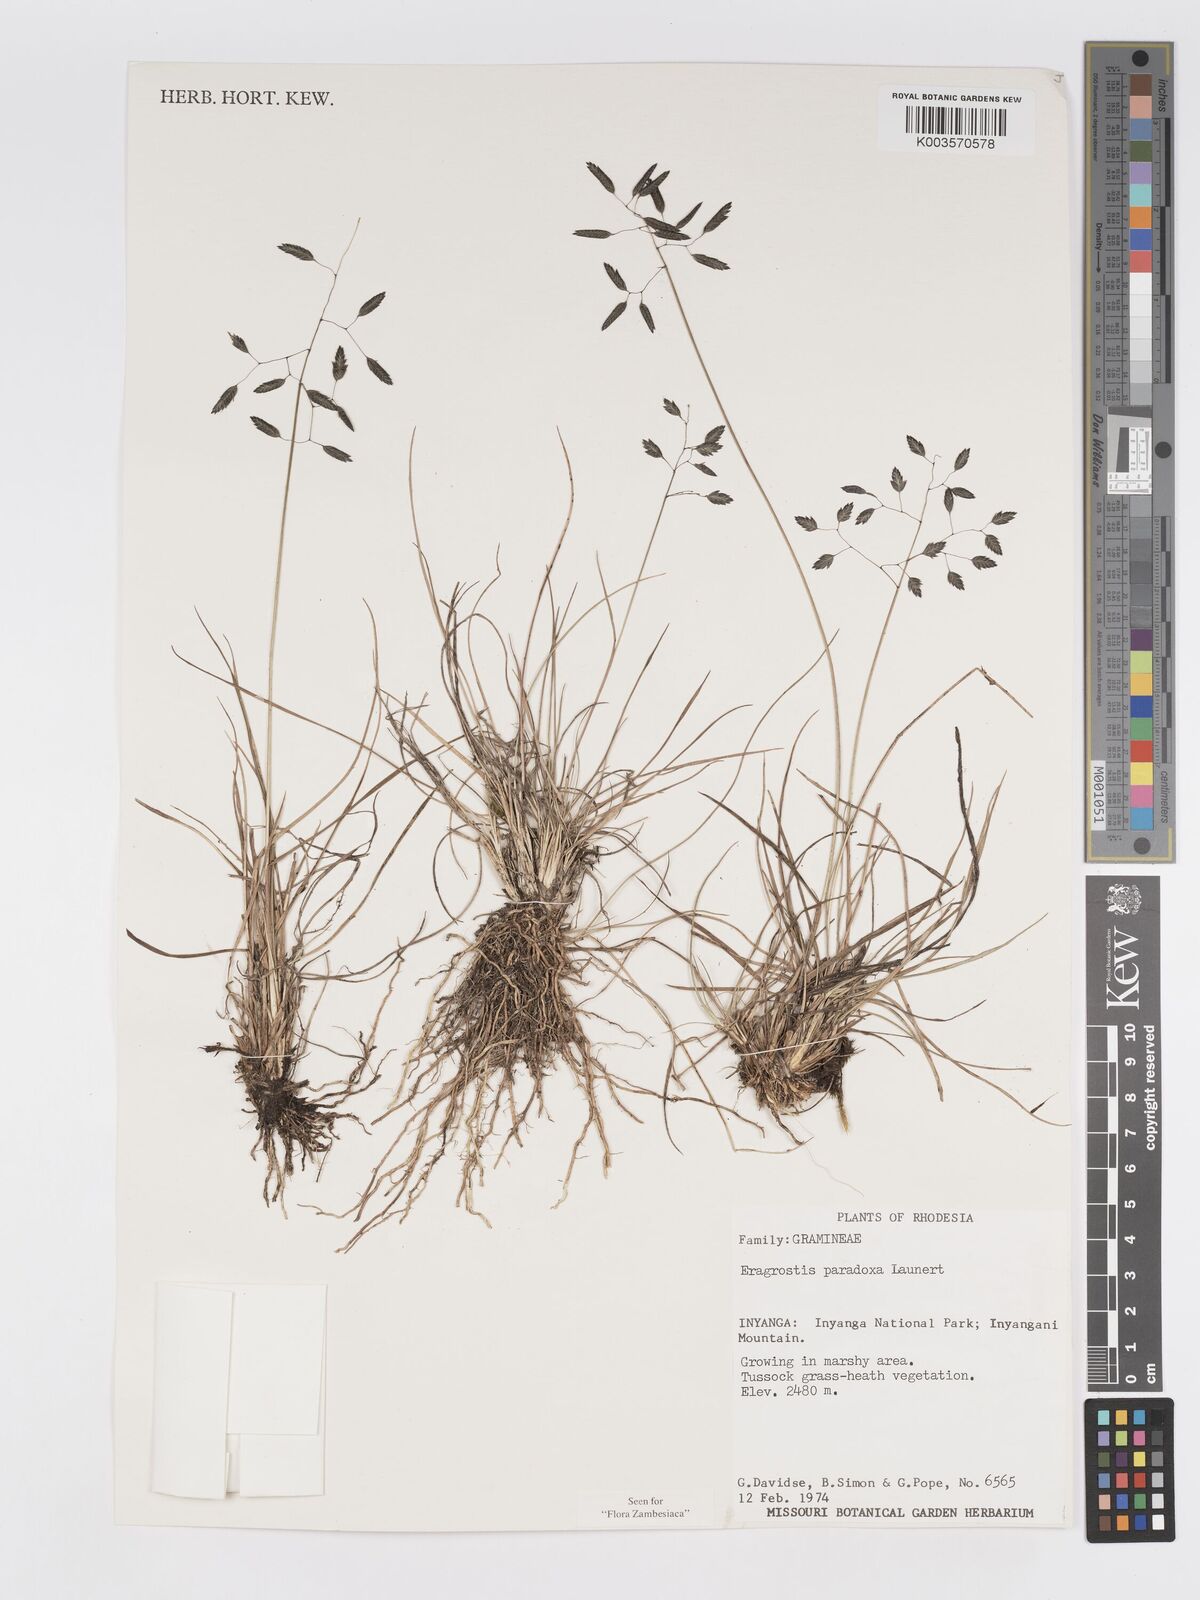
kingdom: Plantae
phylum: Tracheophyta
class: Liliopsida
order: Poales
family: Poaceae
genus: Eragrostis
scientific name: Eragrostis paradoxa
